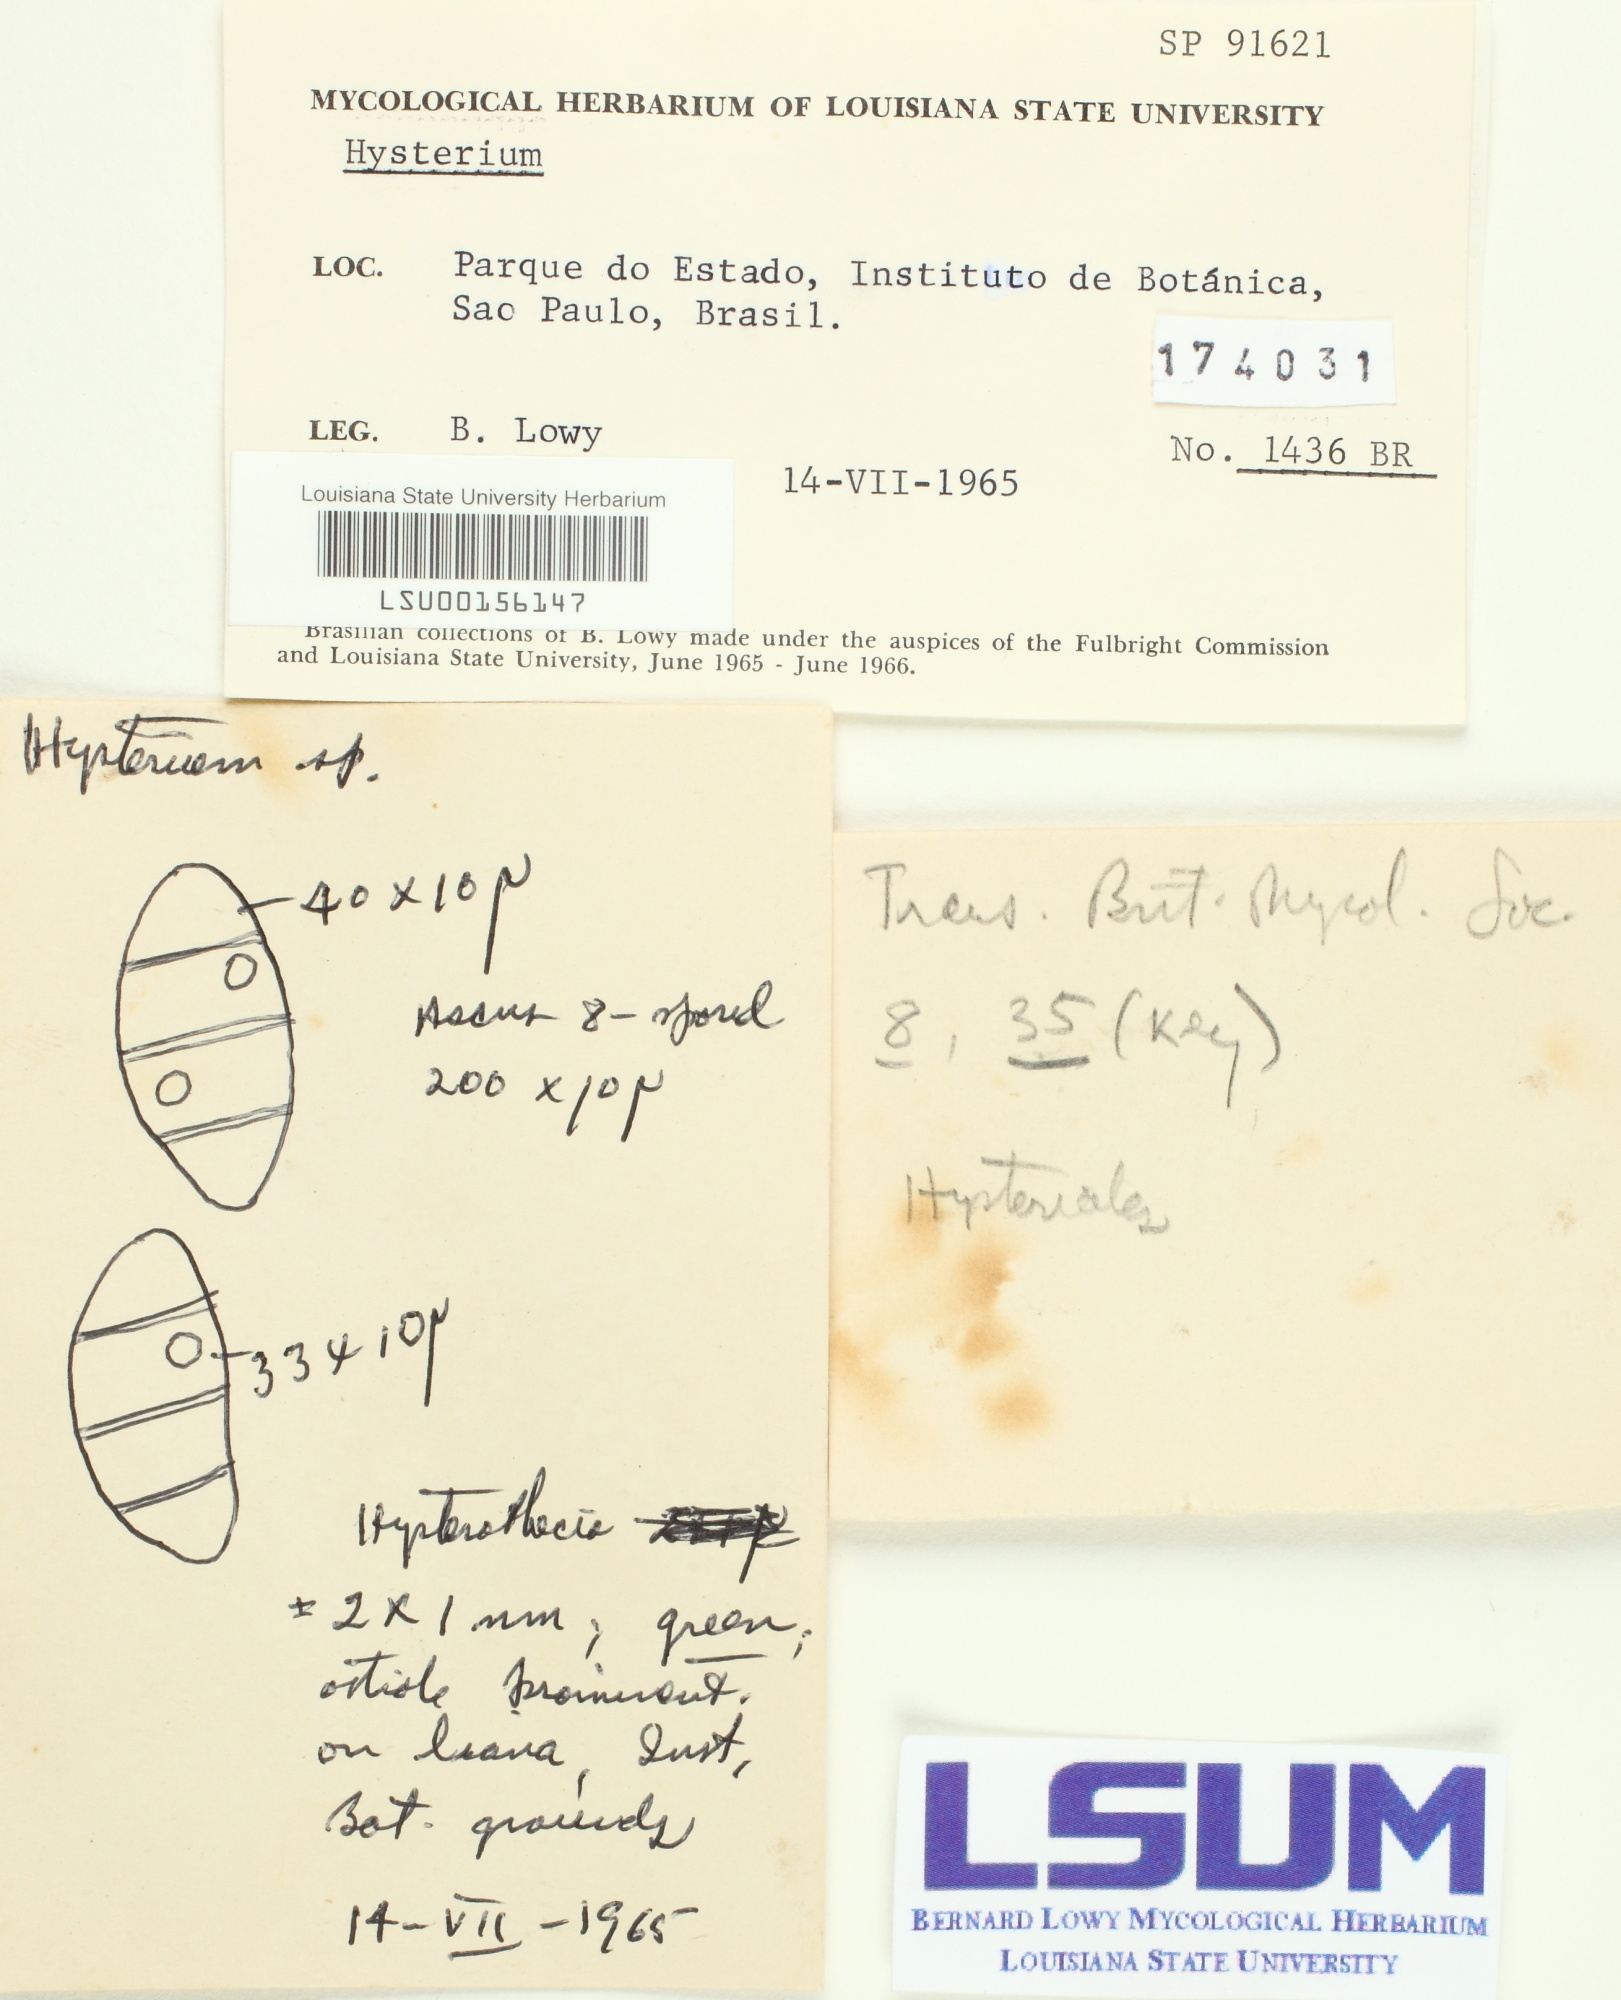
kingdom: Fungi
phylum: Ascomycota
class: Dothideomycetes
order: Hysteriales
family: Hysteriaceae
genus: Hysterium
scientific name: Hysterium
